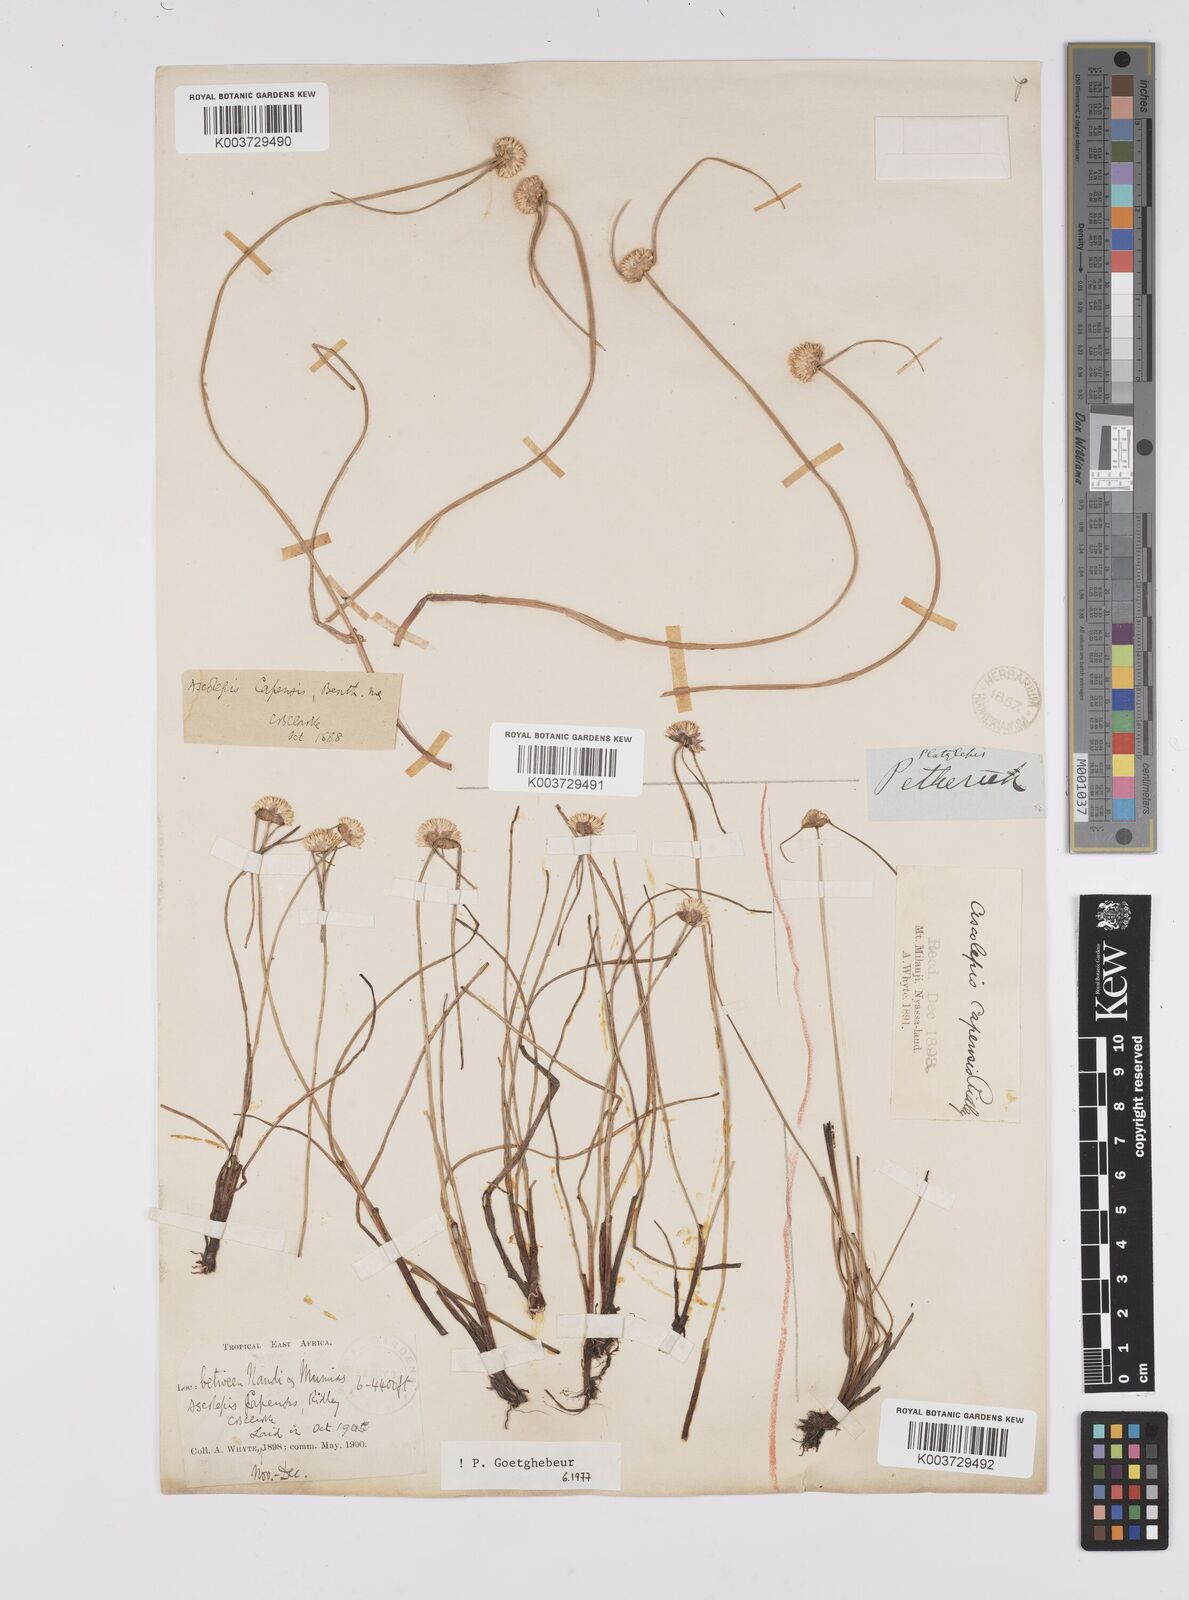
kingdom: Plantae
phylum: Tracheophyta
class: Liliopsida
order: Poales
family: Cyperaceae
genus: Cyperus
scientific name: Cyperus
